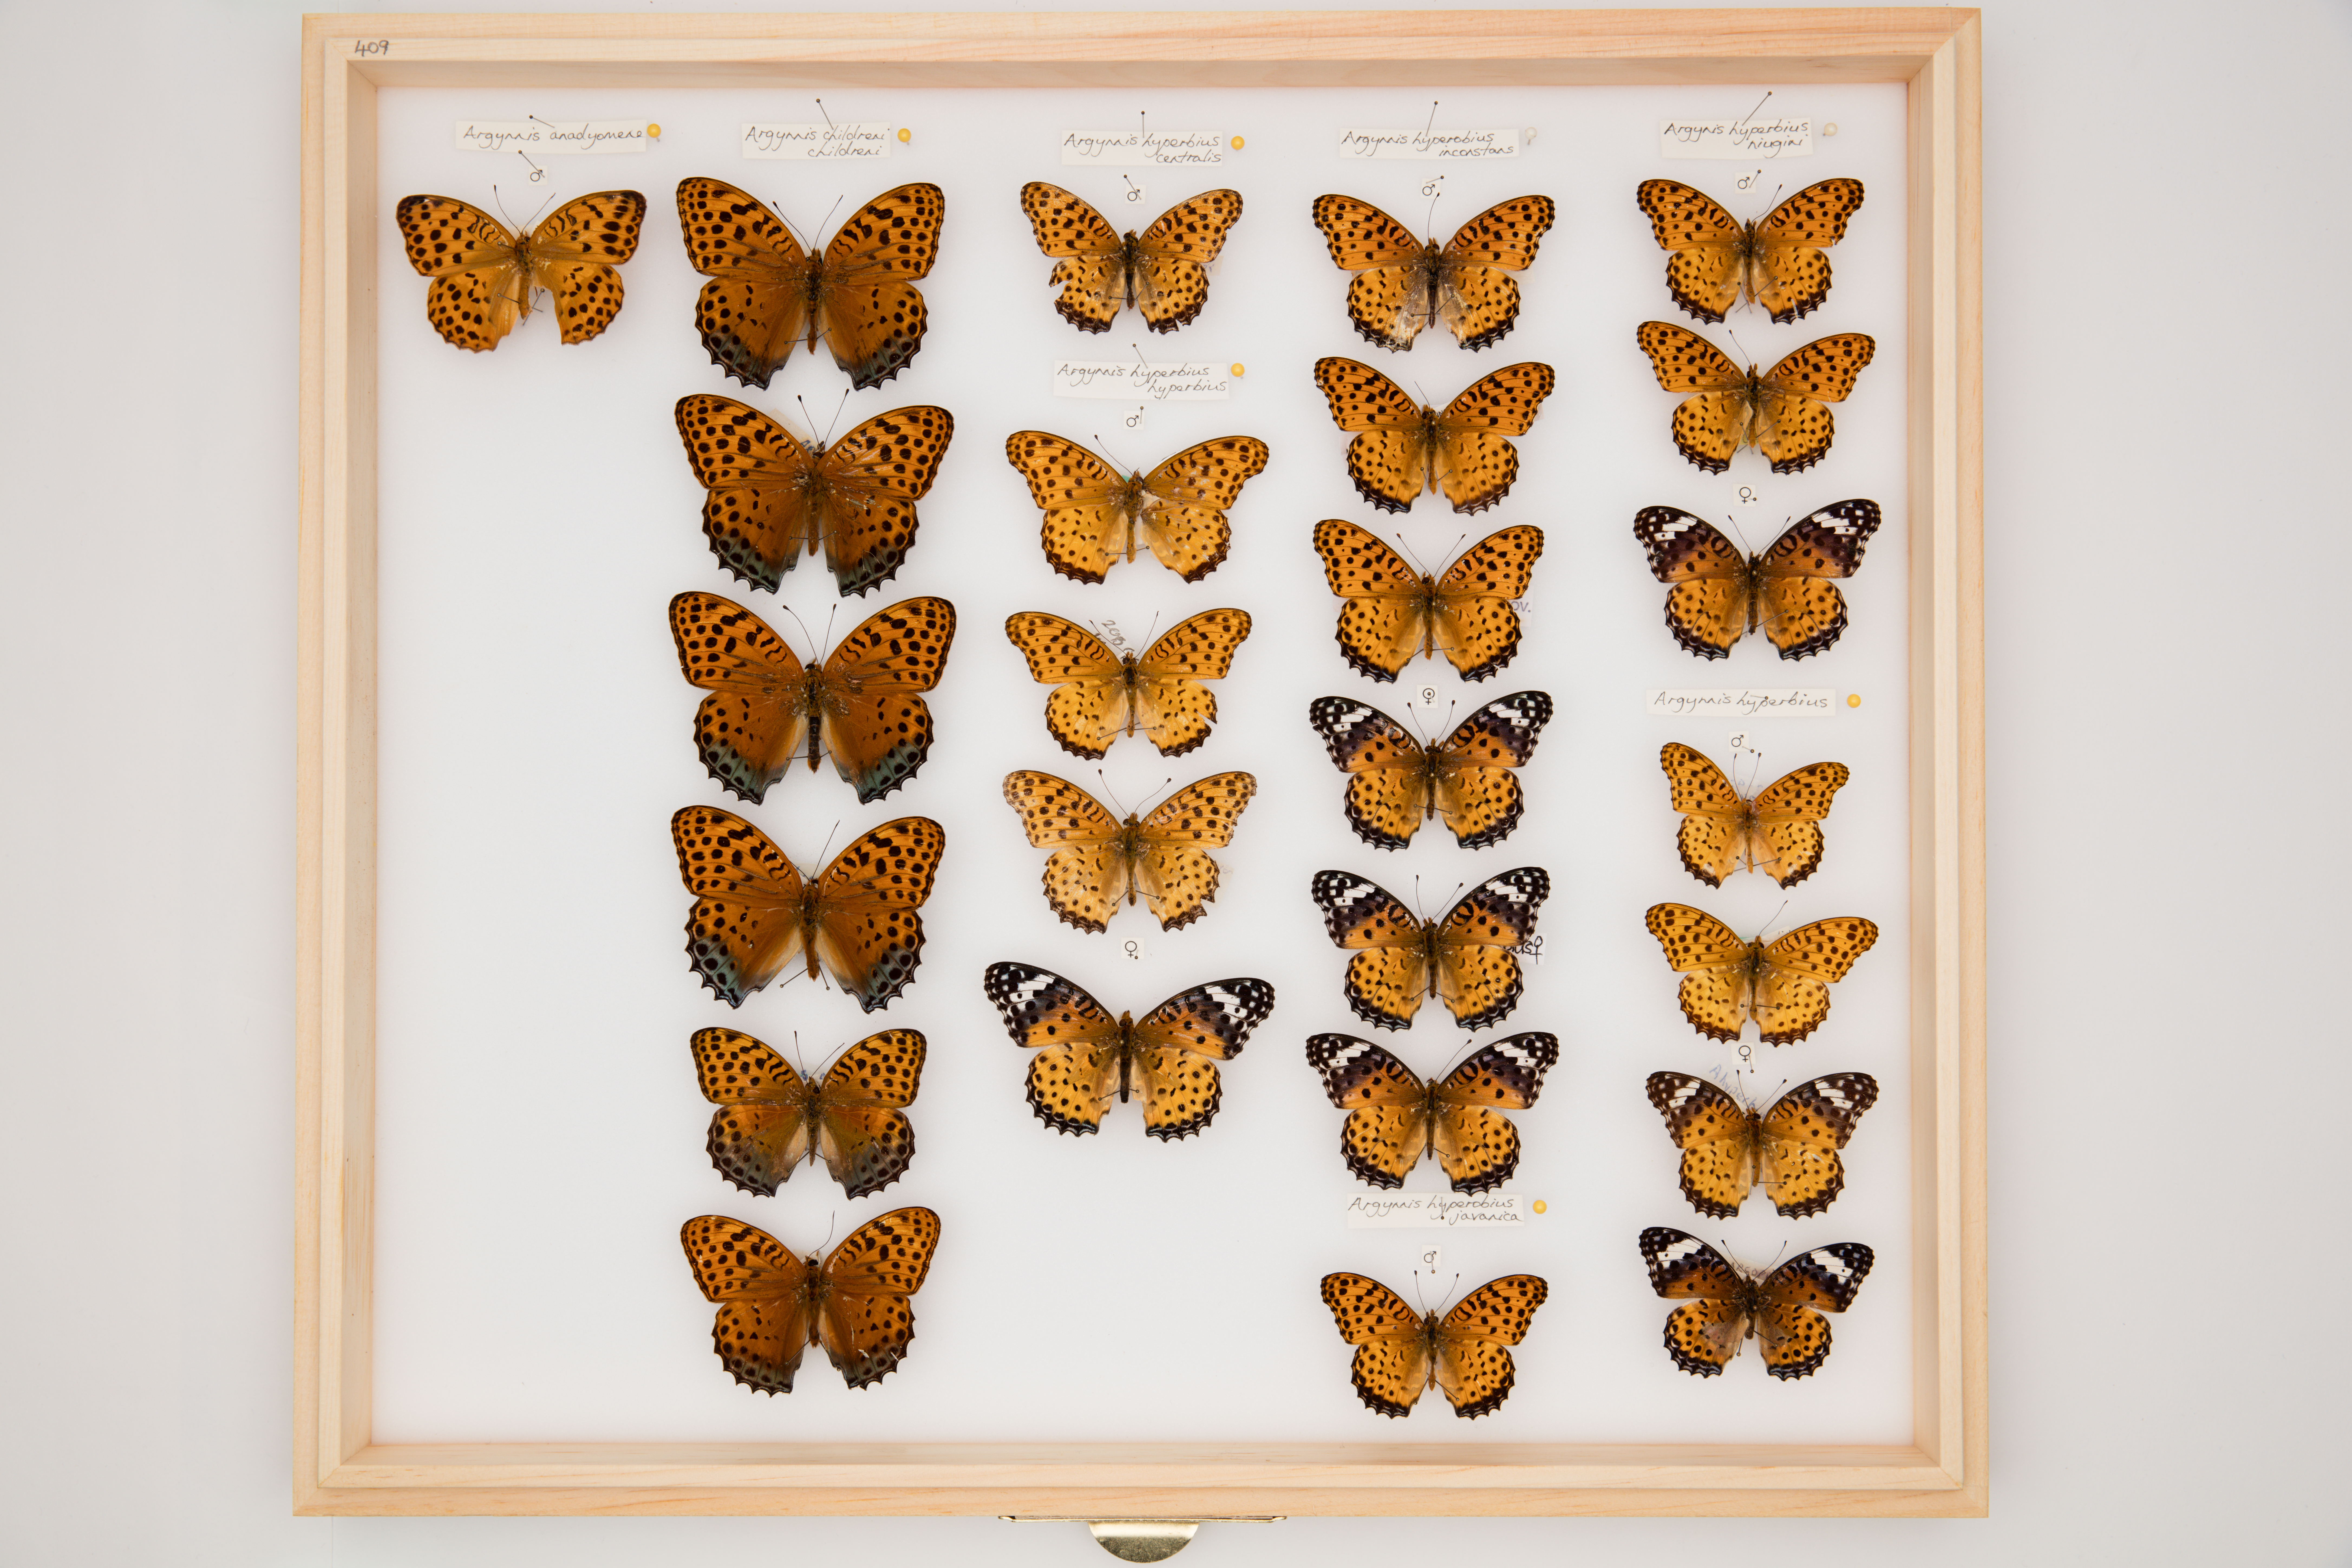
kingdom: Animalia
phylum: Arthropoda
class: Insecta
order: Lepidoptera
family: Nymphalidae
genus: Argynnis
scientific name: Argynnis hyperbius
